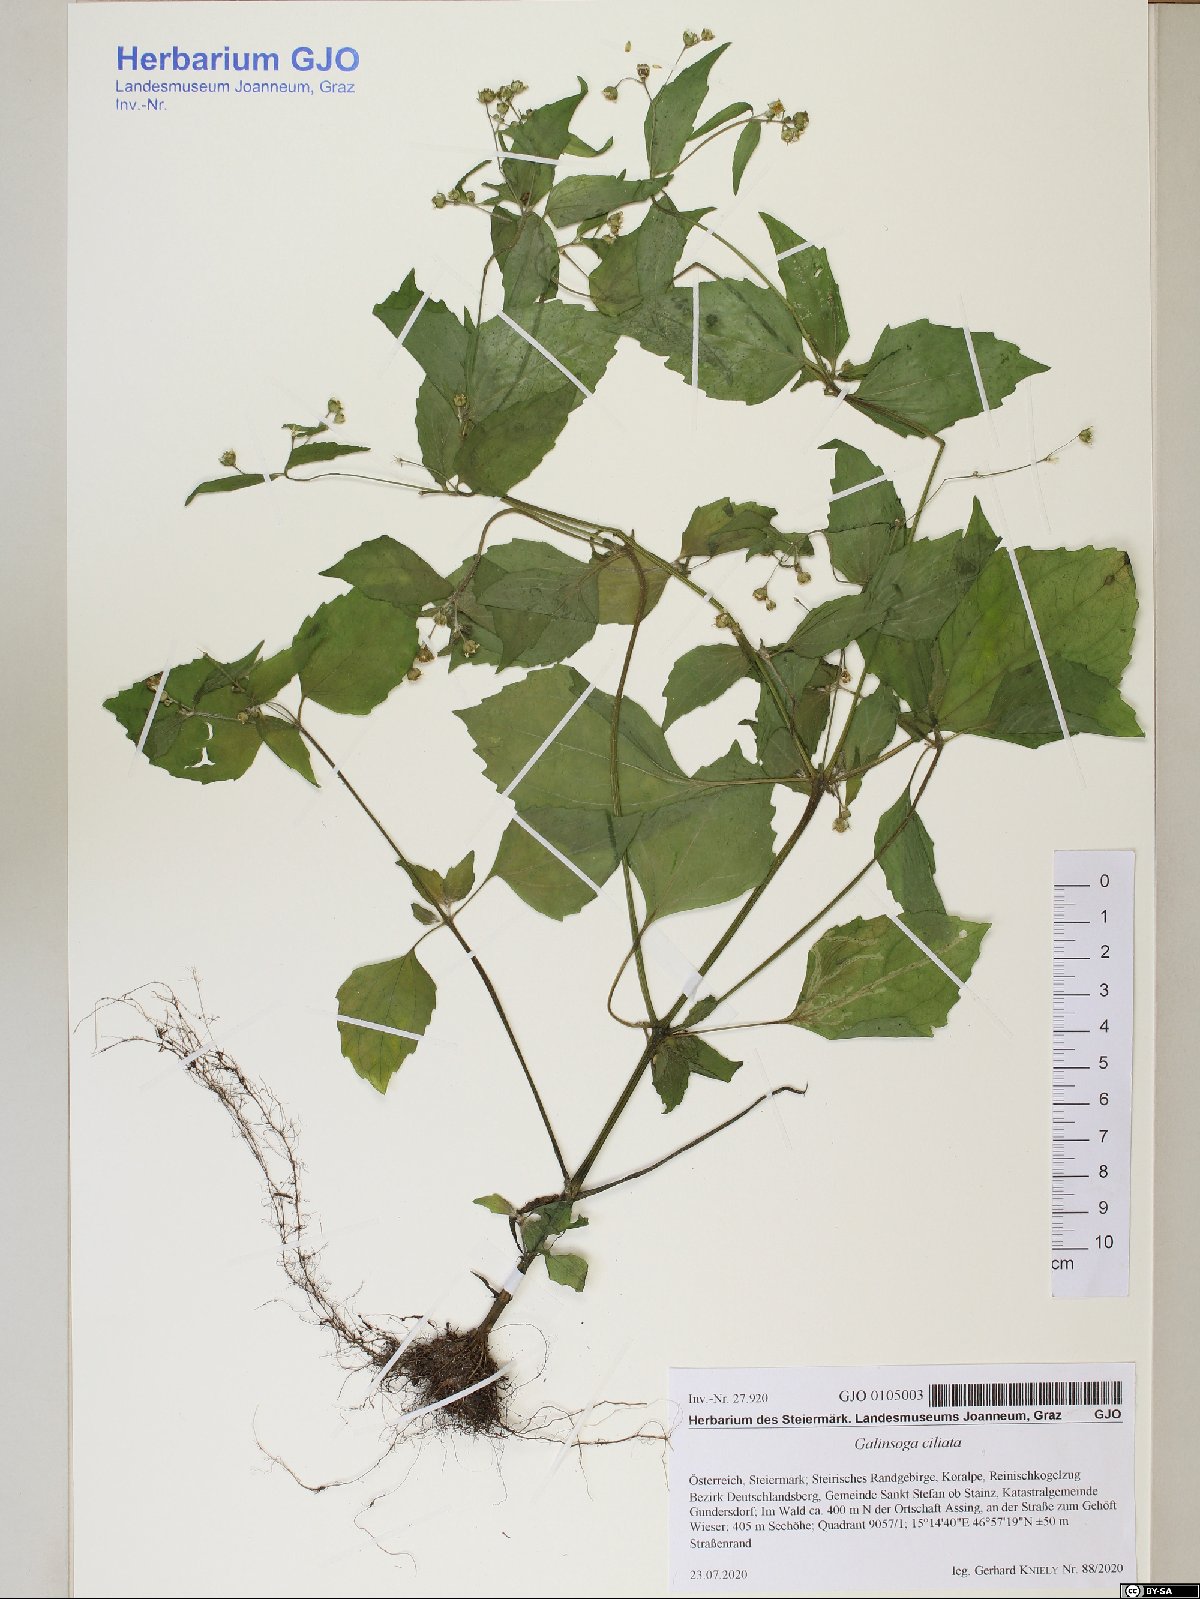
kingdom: Plantae
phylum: Tracheophyta
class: Magnoliopsida
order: Asterales
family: Asteraceae
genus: Galinsoga
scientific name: Galinsoga quadriradiata
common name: Shaggy soldier
